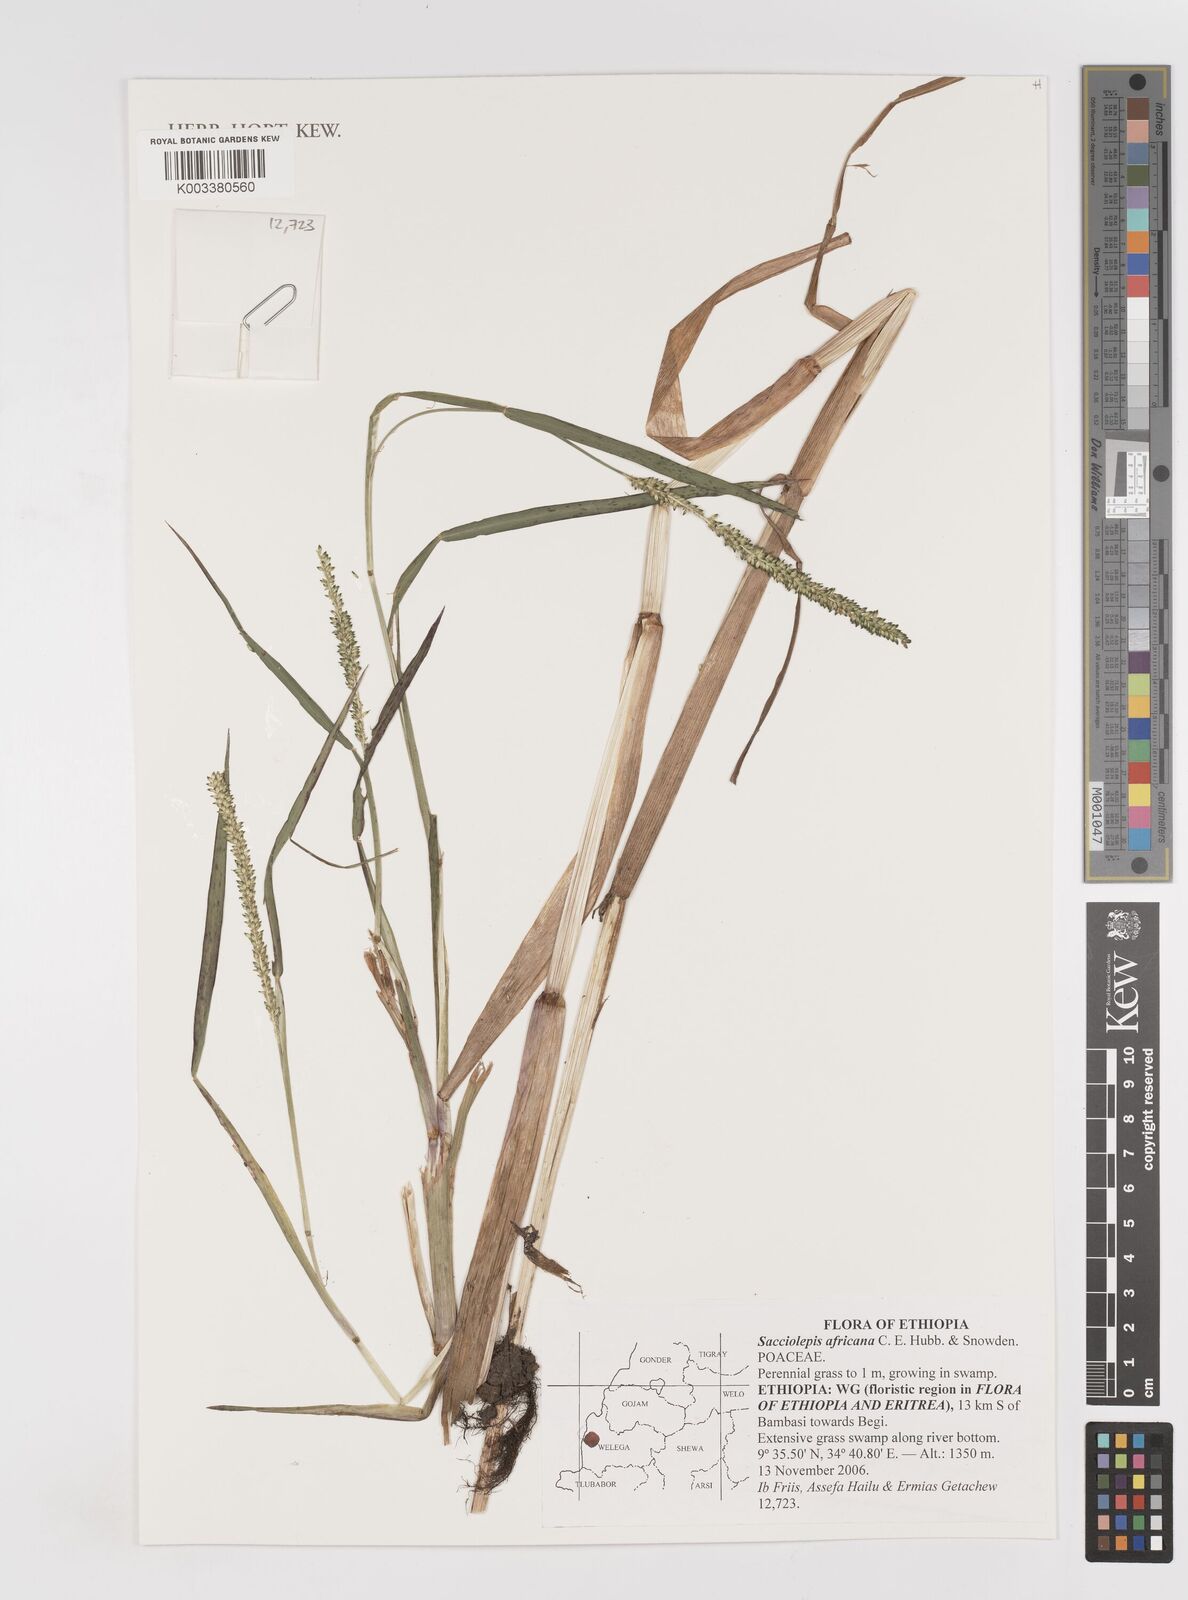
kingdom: Plantae
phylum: Tracheophyta
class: Liliopsida
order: Poales
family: Poaceae
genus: Sacciolepis
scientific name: Sacciolepis africana
